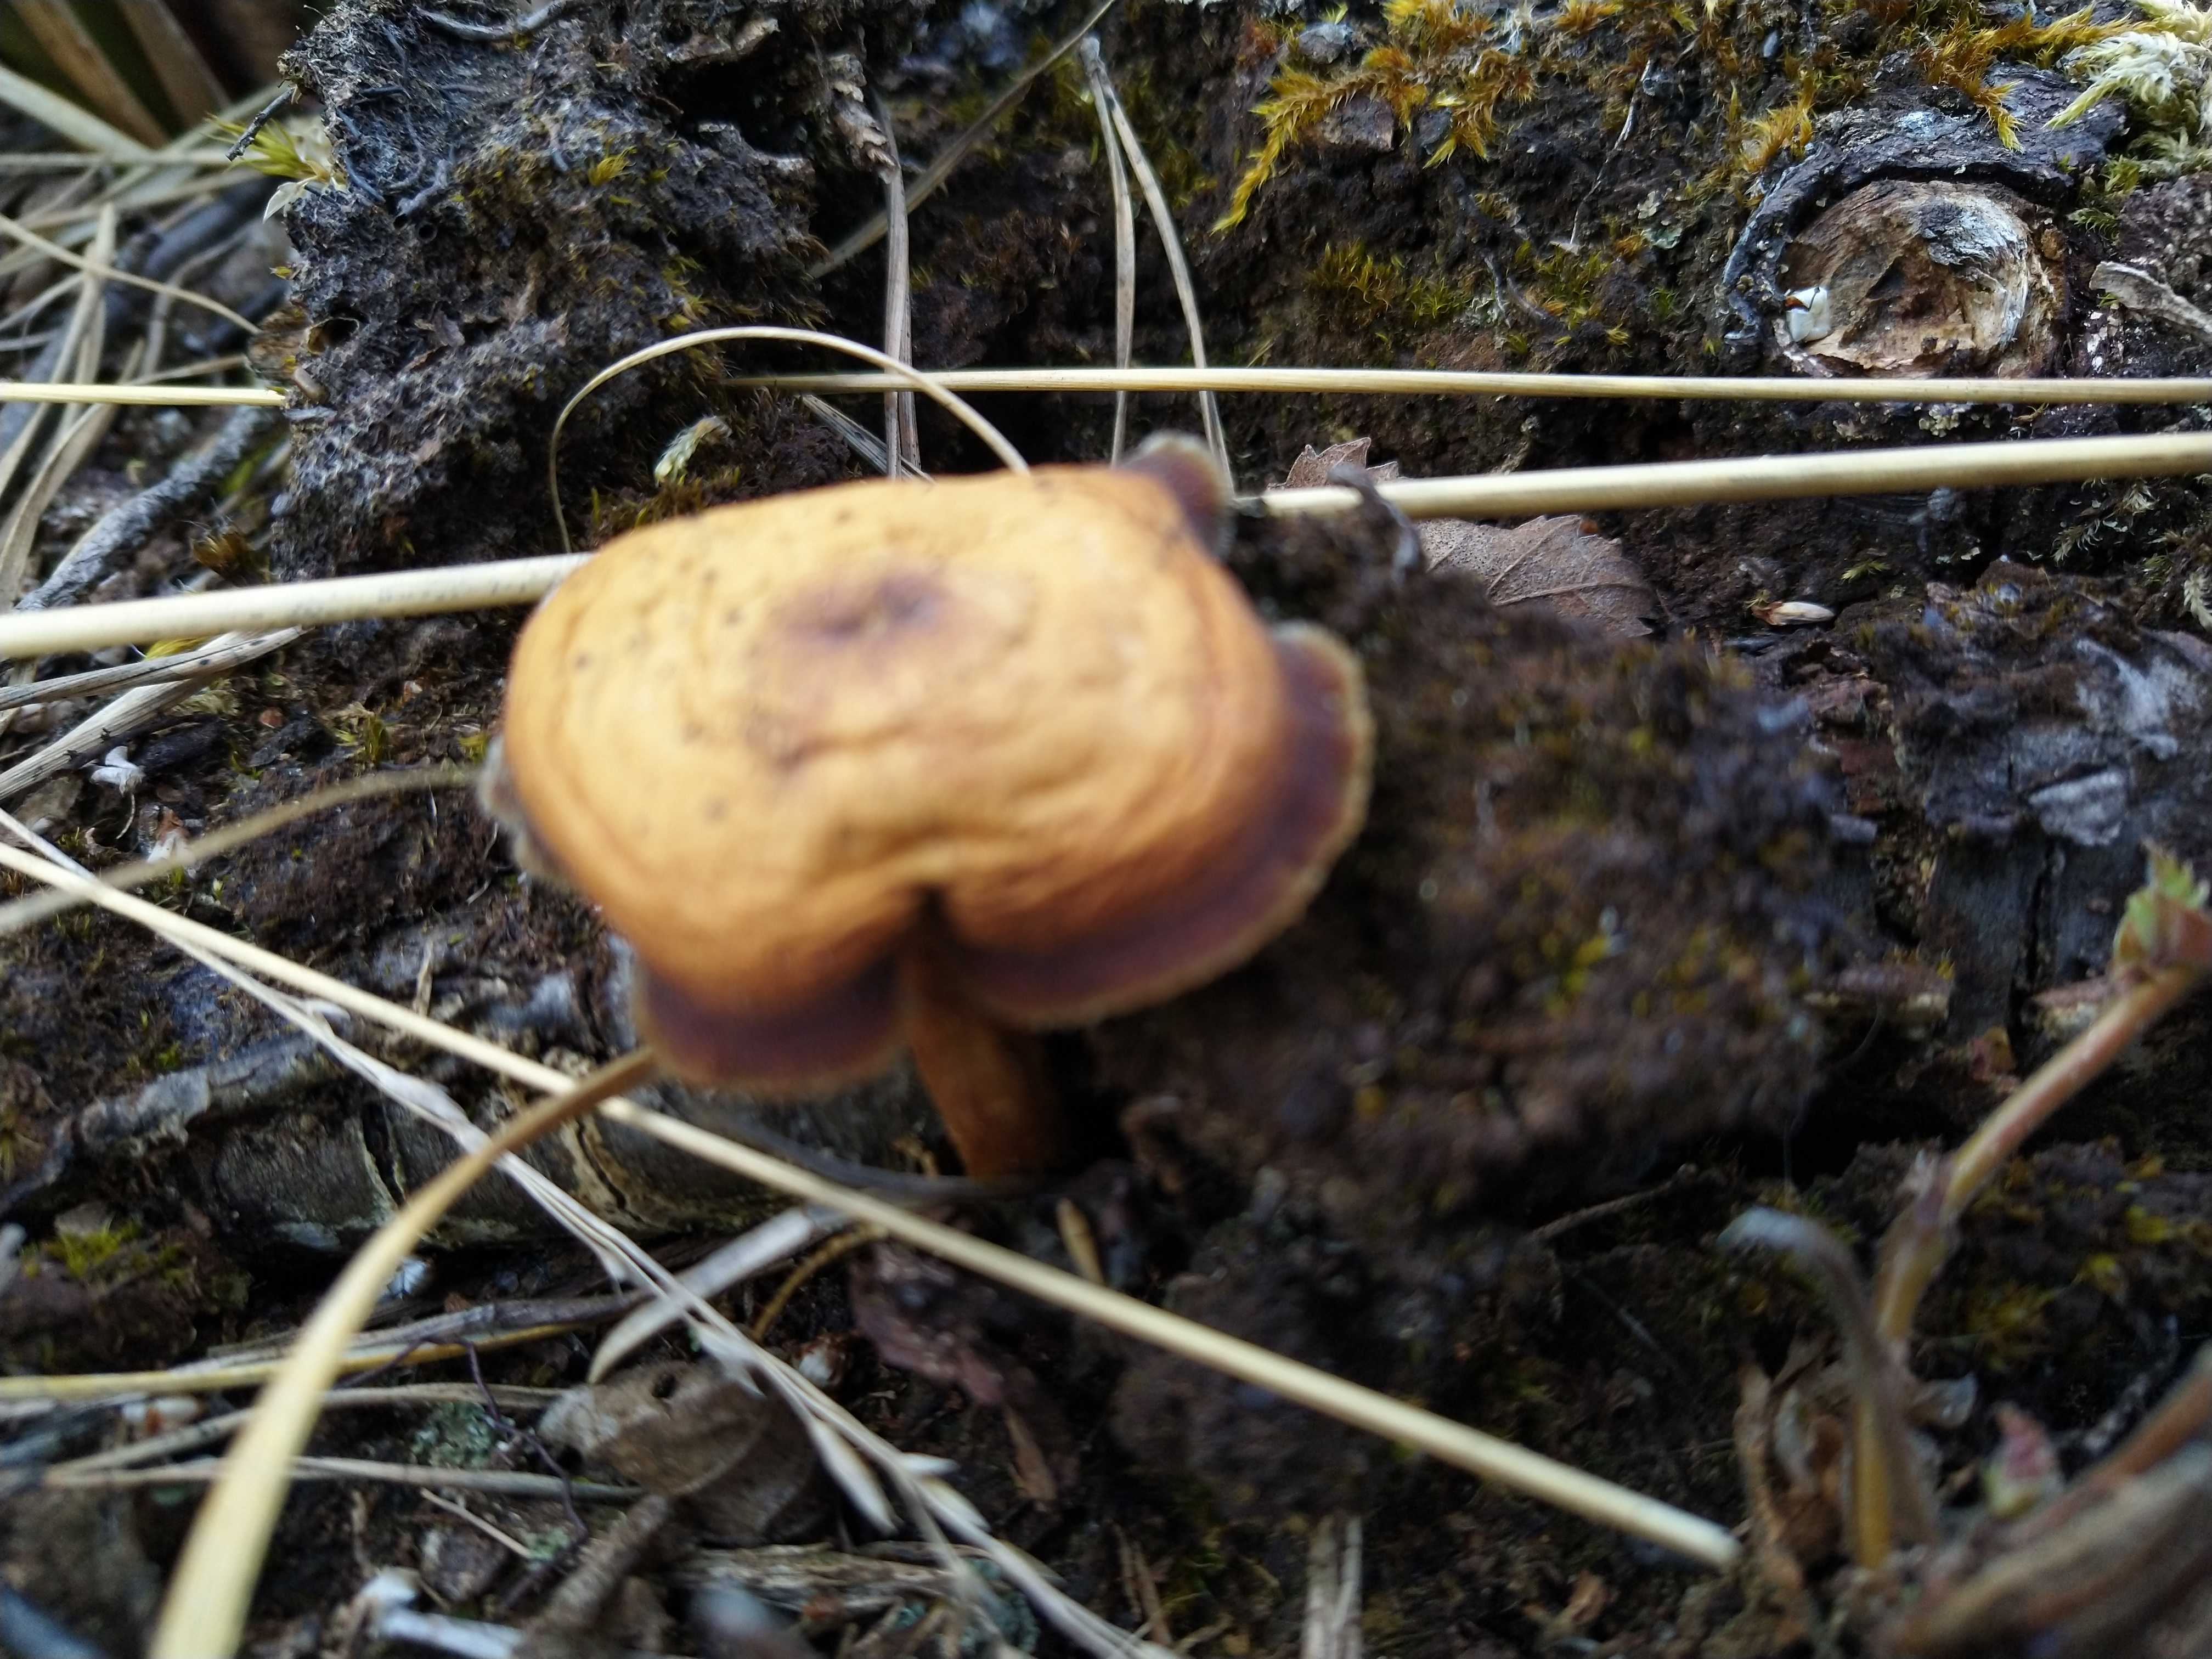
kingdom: Fungi
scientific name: Fungi
